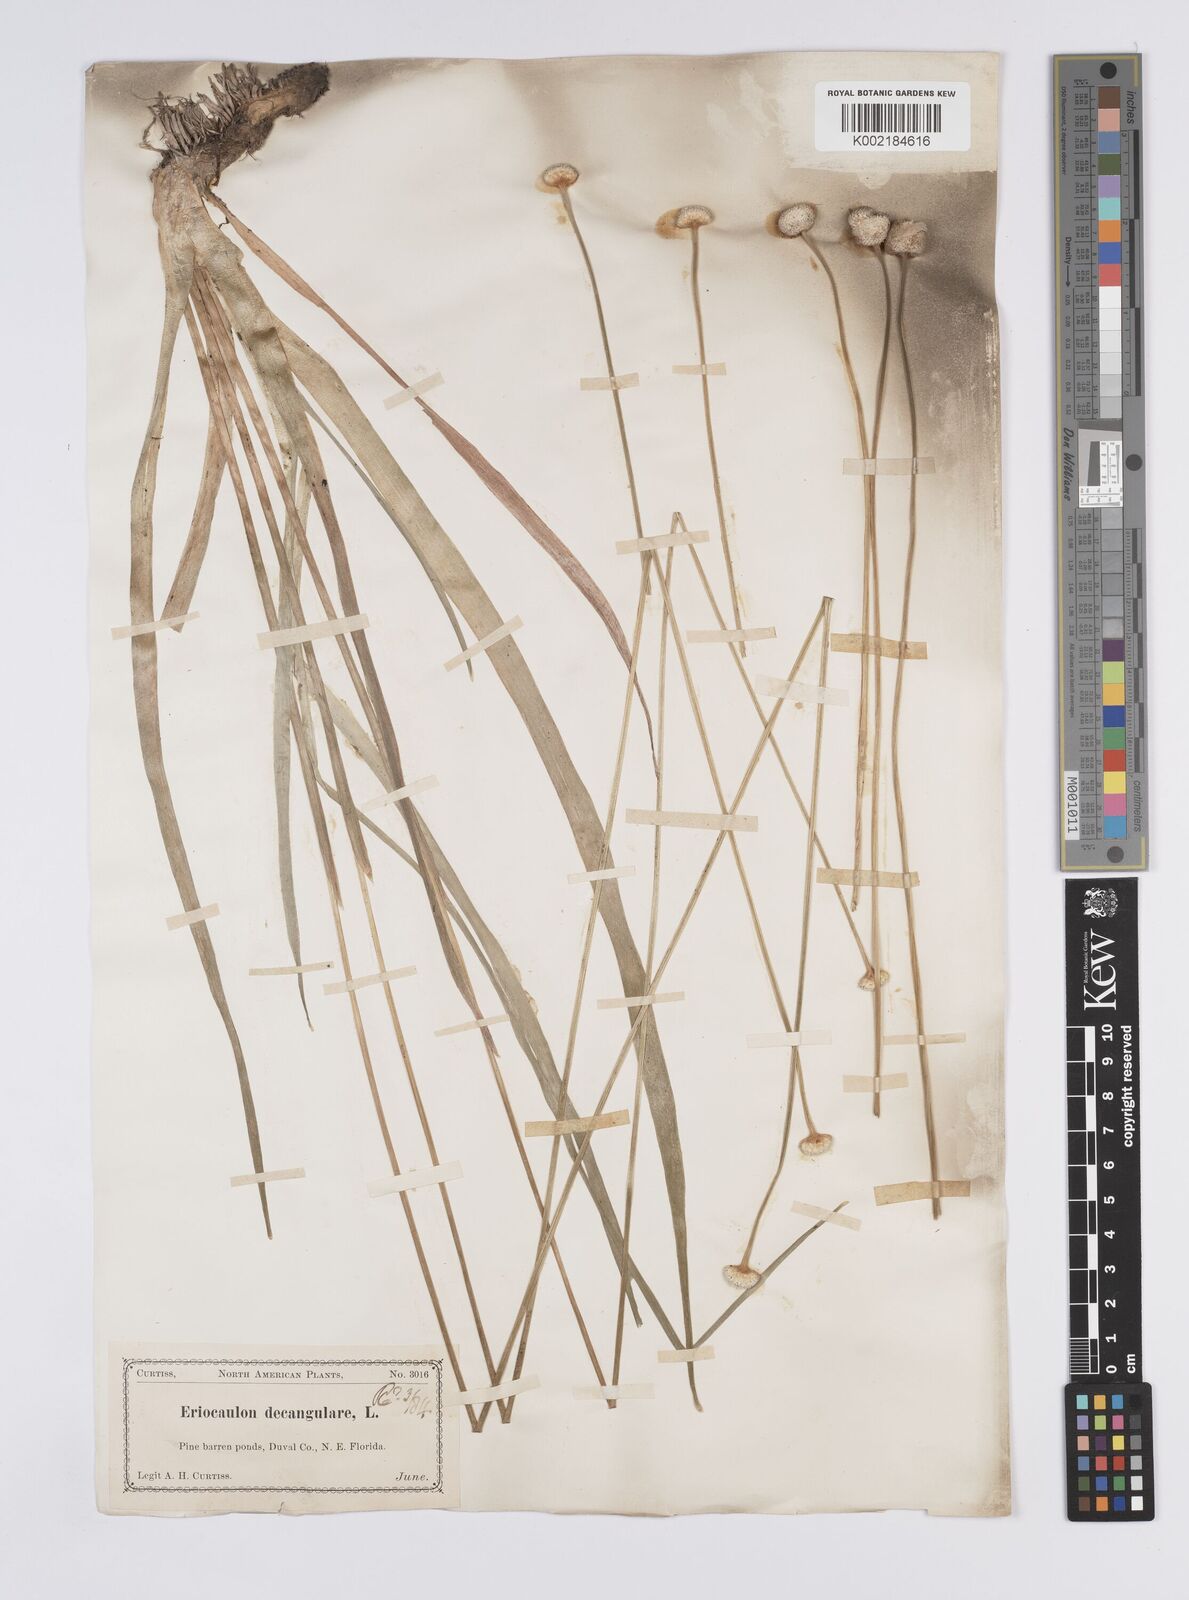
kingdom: Plantae
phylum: Tracheophyta
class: Liliopsida
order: Poales
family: Eriocaulaceae
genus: Eriocaulon
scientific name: Eriocaulon decangulare
